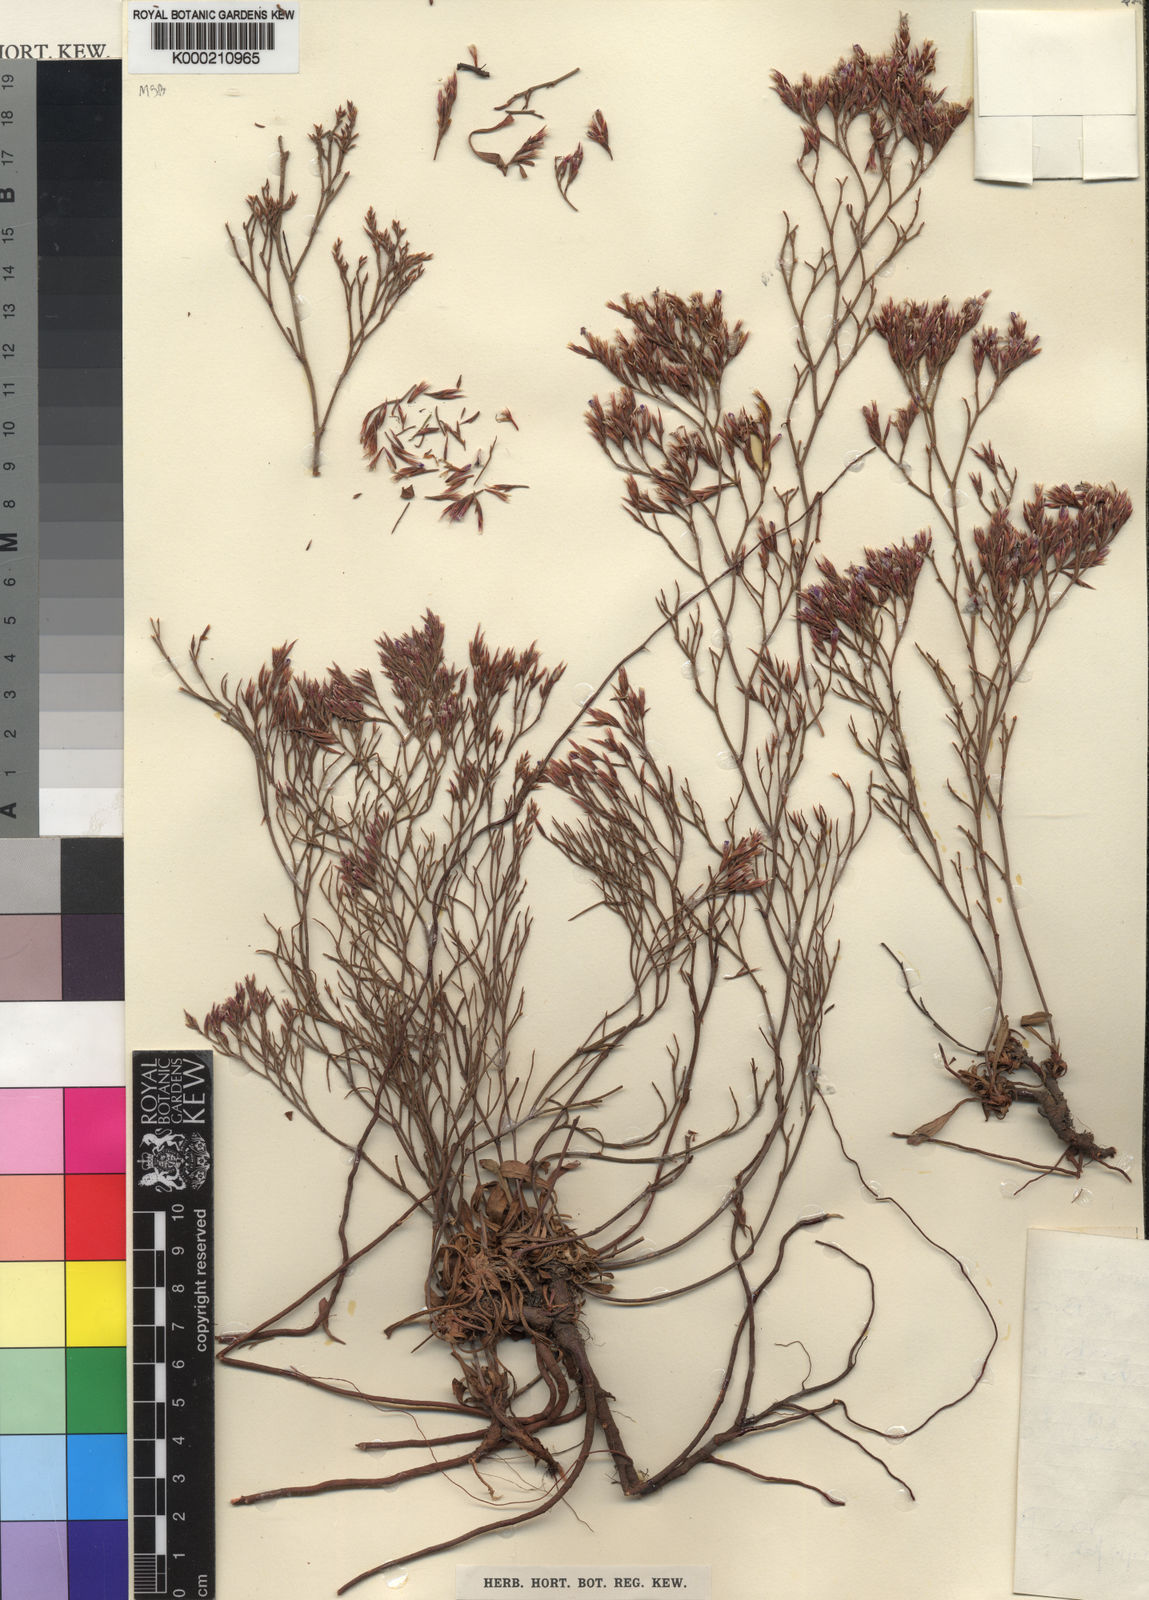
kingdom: Plantae
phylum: Tracheophyta
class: Magnoliopsida
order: Caryophyllales
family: Plumbaginaceae
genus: Limonium
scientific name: Limonium scabrum
